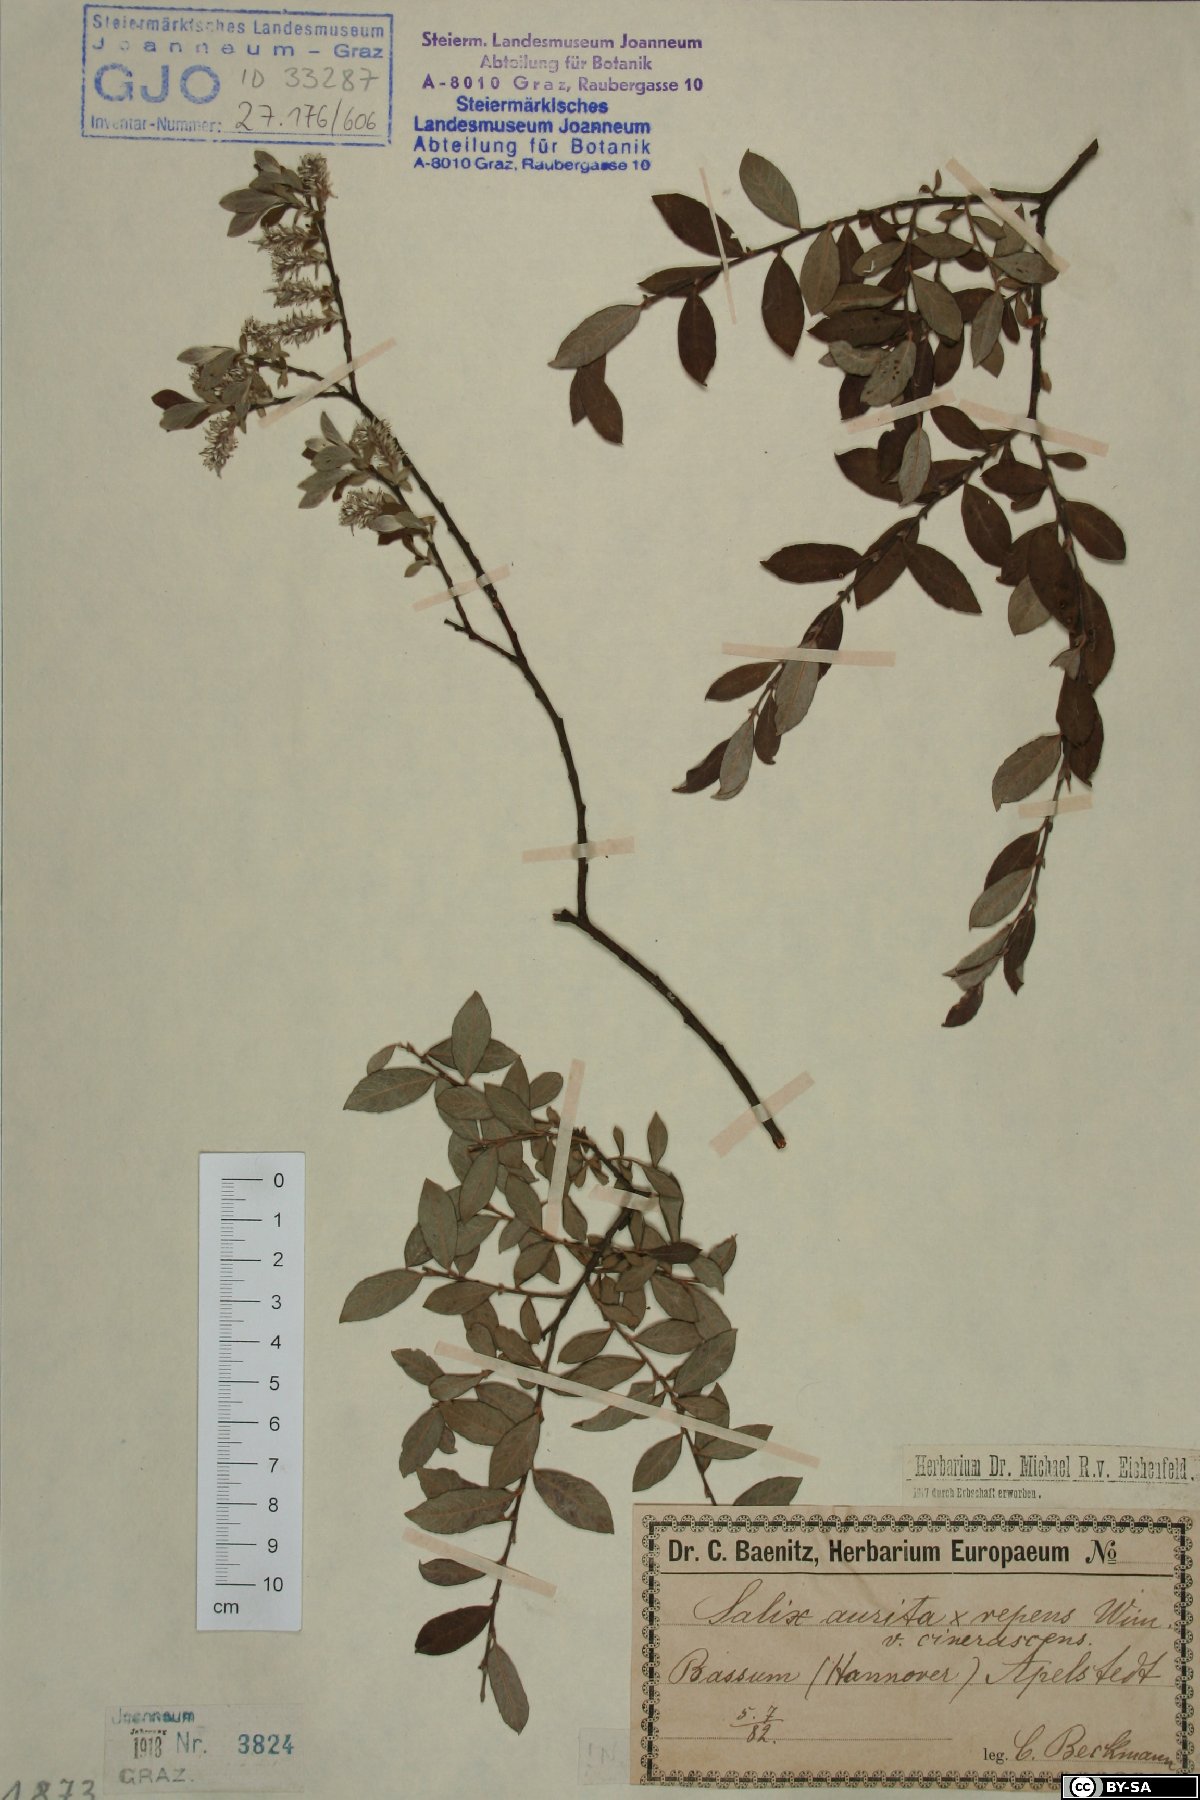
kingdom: Plantae
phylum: Tracheophyta
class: Magnoliopsida
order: Malpighiales
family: Salicaceae
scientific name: Salicaceae
